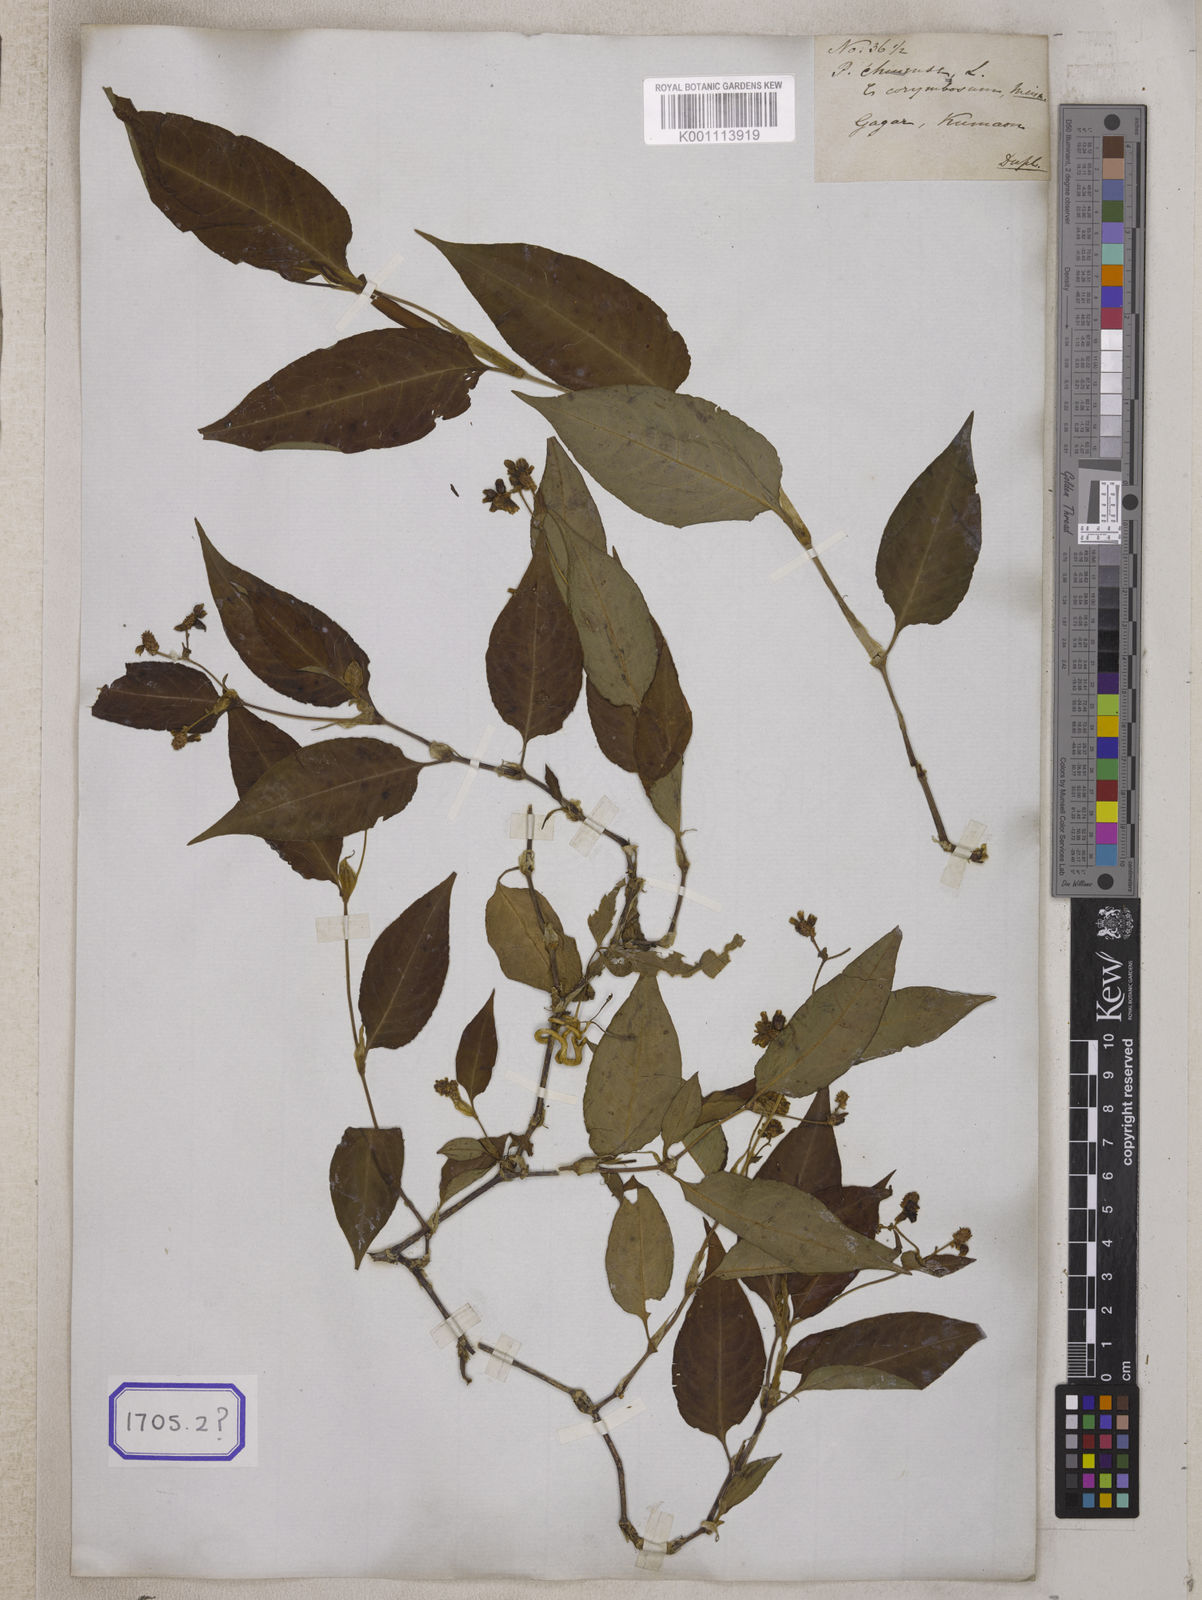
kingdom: Plantae
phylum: Tracheophyta
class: Magnoliopsida
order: Caryophyllales
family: Polygonaceae
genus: Persicaria
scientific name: Persicaria chinensis
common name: Chinese knotweed
